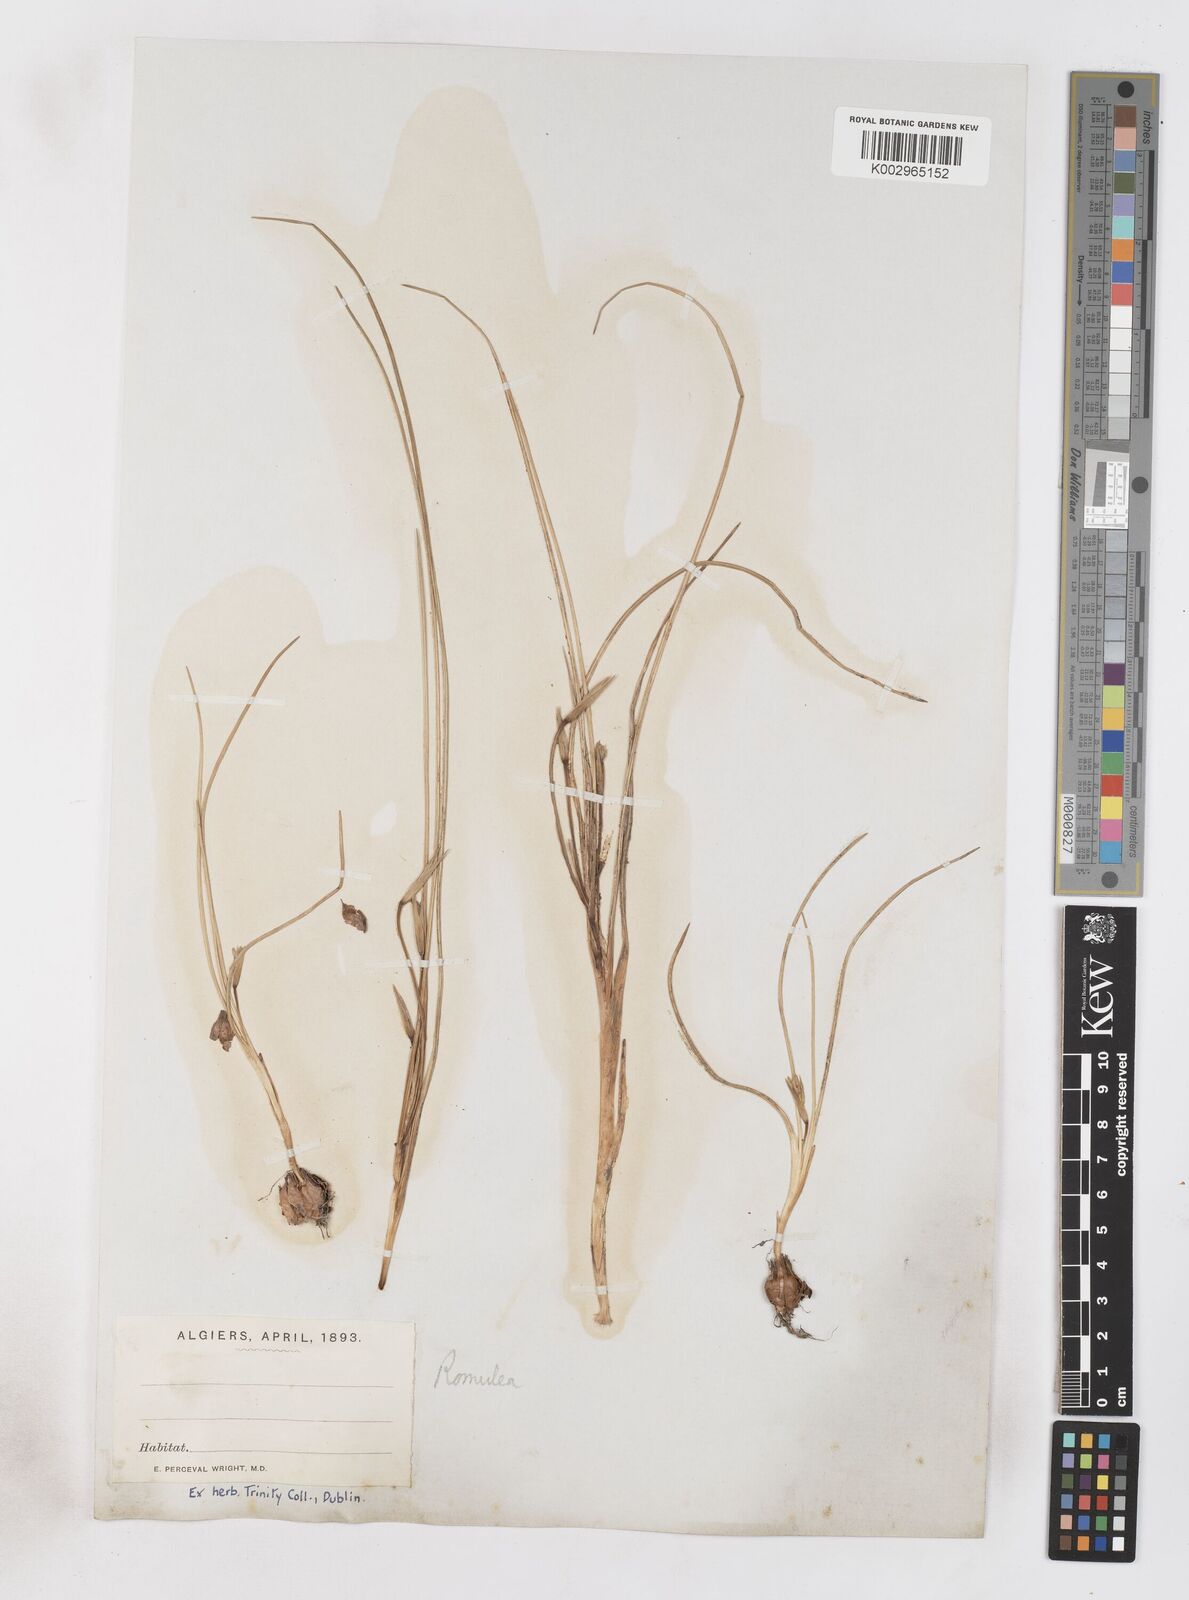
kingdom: Plantae
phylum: Tracheophyta
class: Liliopsida
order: Asparagales
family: Iridaceae
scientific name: Iridaceae
